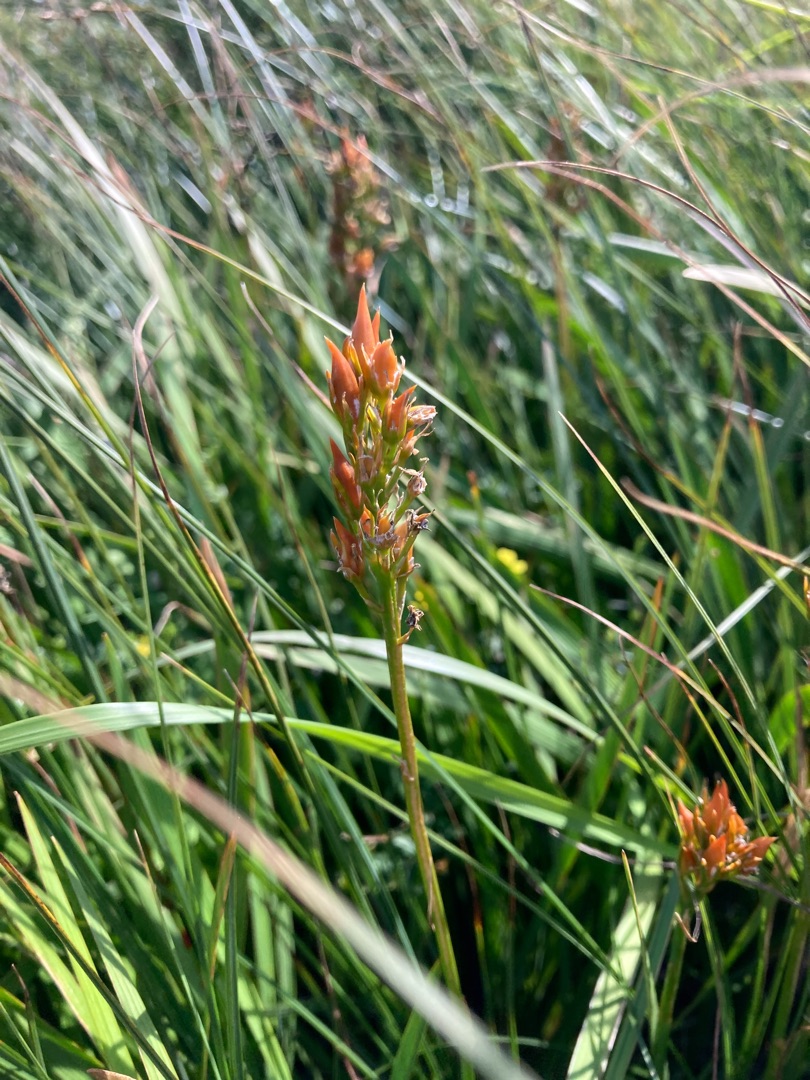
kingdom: Plantae
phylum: Tracheophyta
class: Liliopsida
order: Dioscoreales
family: Nartheciaceae
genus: Narthecium
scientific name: Narthecium ossifragum
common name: Benbræk
